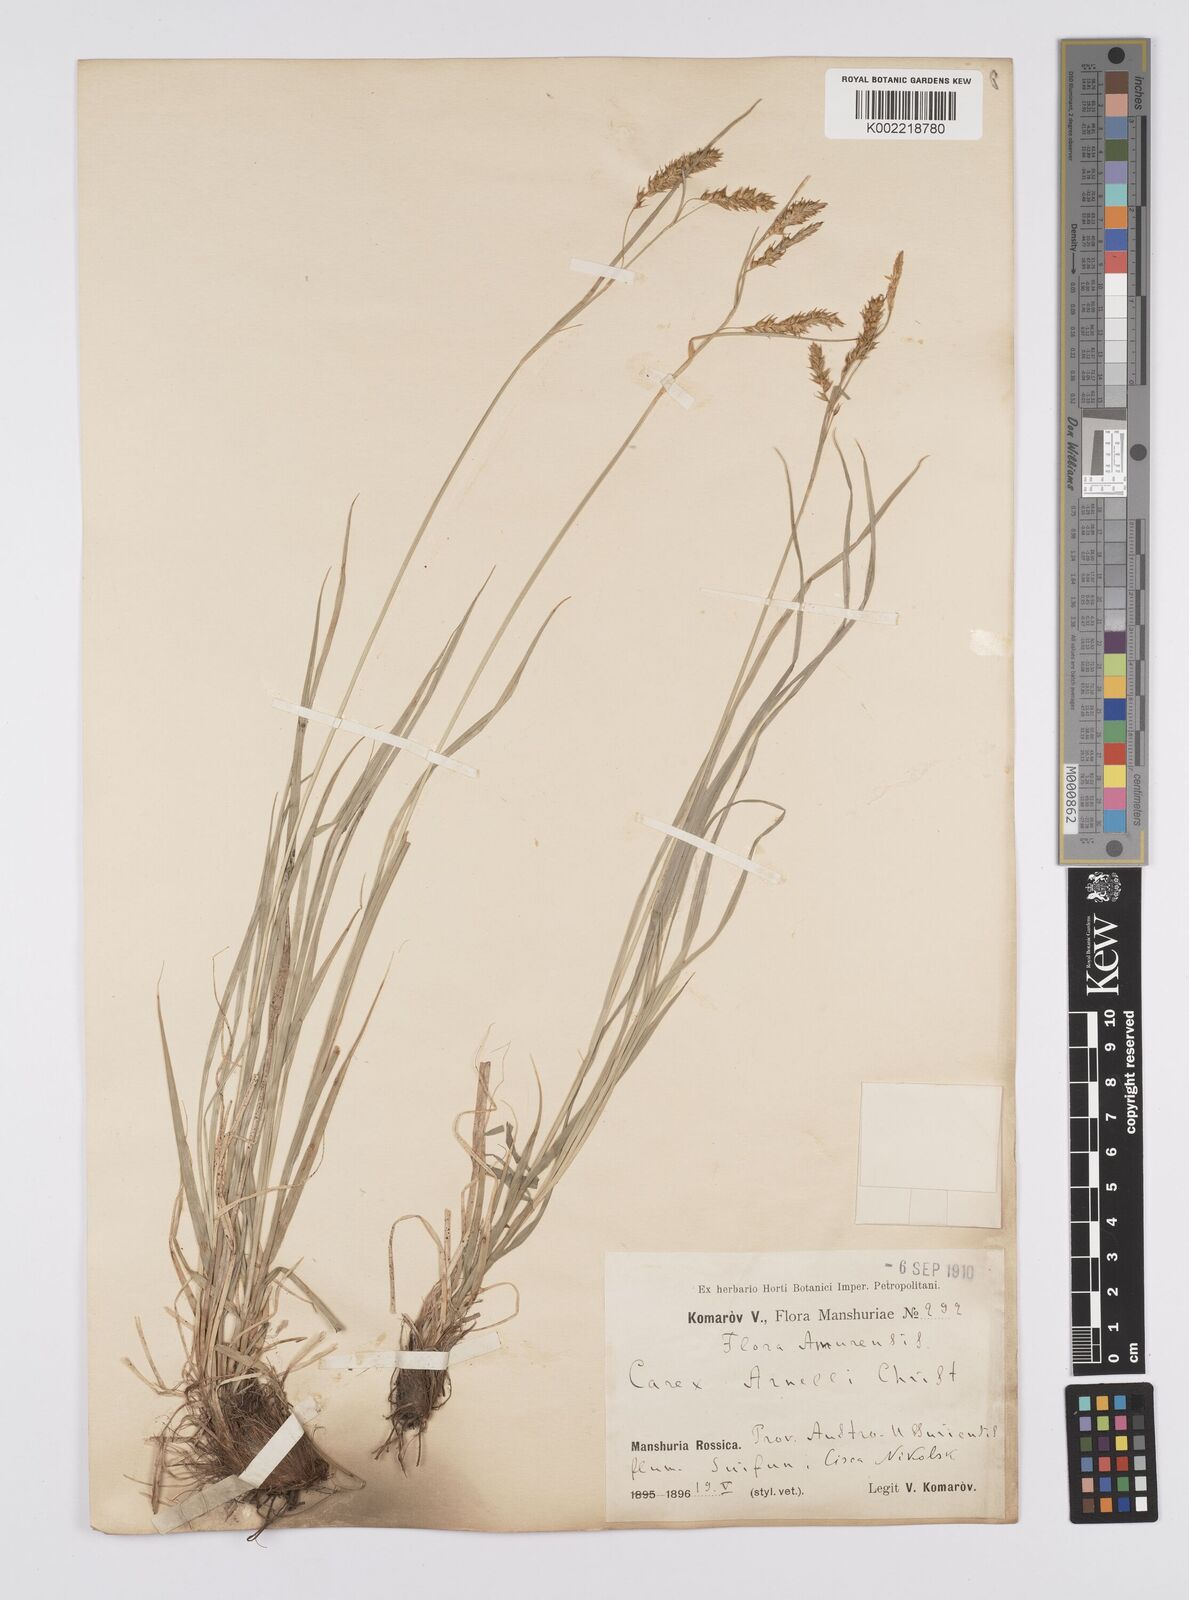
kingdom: Plantae
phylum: Tracheophyta
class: Liliopsida
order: Poales
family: Cyperaceae
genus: Carex
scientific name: Carex arnellii
